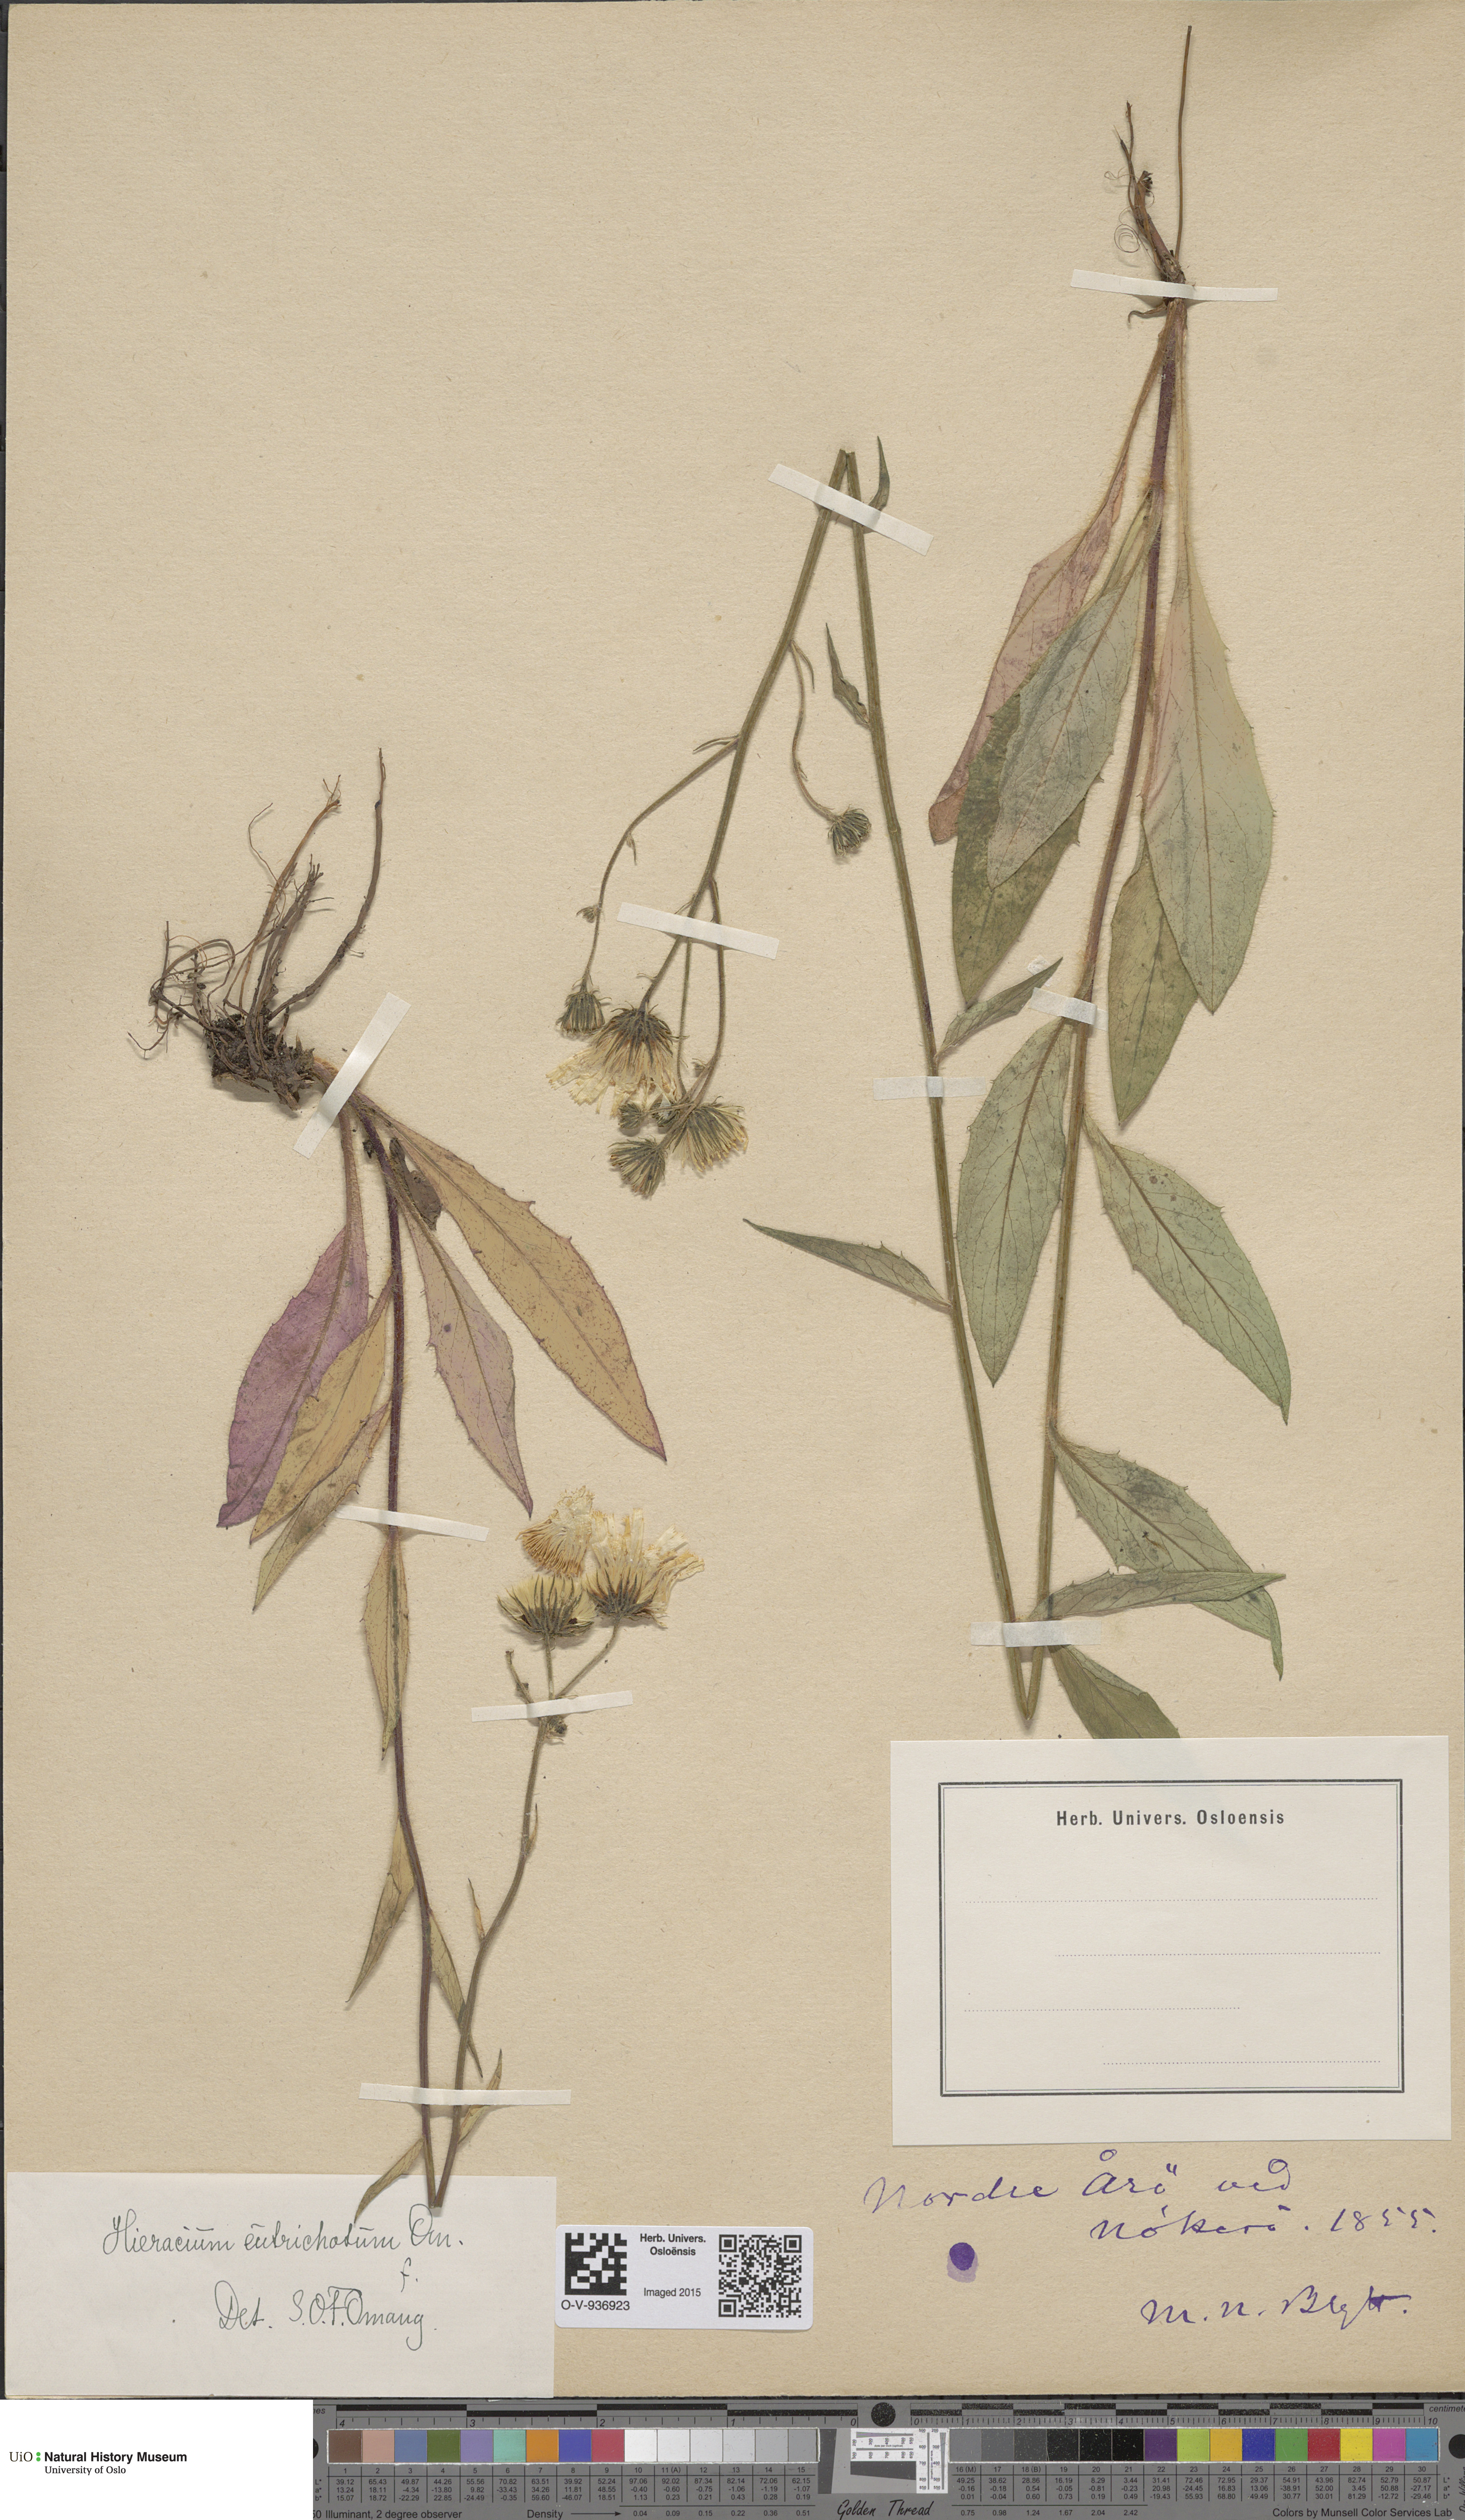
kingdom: Plantae
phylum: Tracheophyta
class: Magnoliopsida
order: Asterales
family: Asteraceae
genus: Hieracium
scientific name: Hieracium
